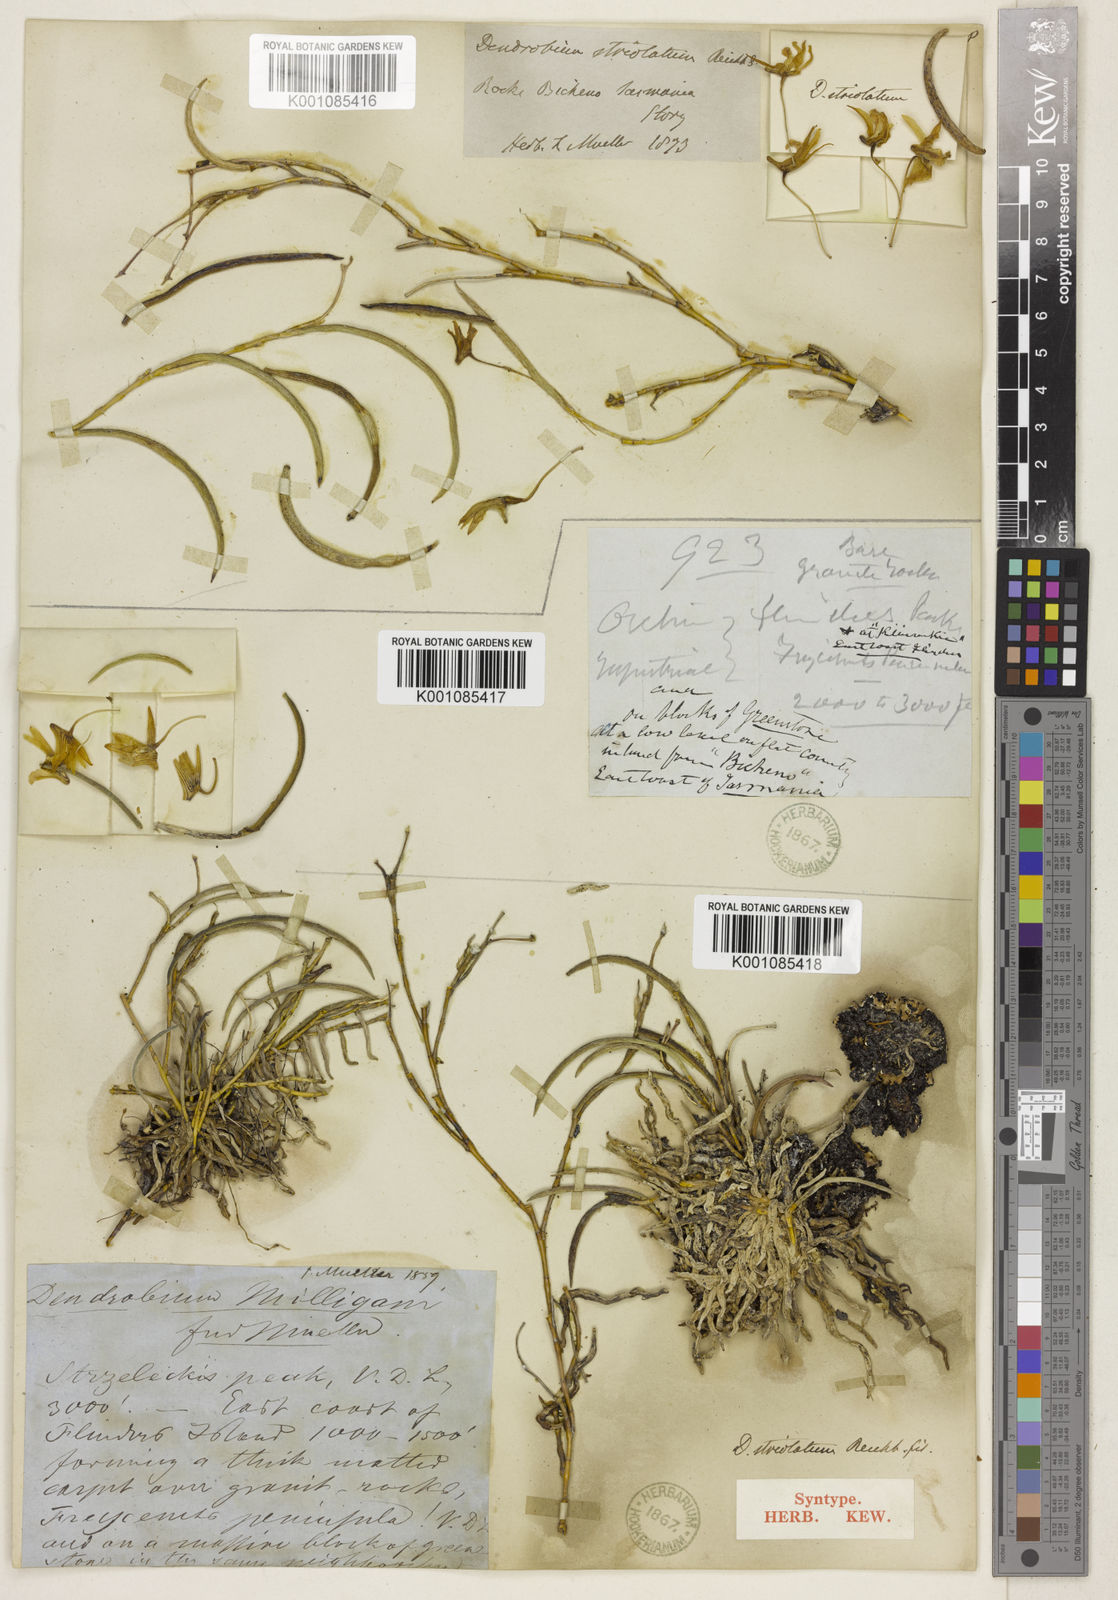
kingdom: Plantae
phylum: Tracheophyta
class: Liliopsida
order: Asparagales
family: Orchidaceae
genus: Dendrobium
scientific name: Dendrobium striolatum
